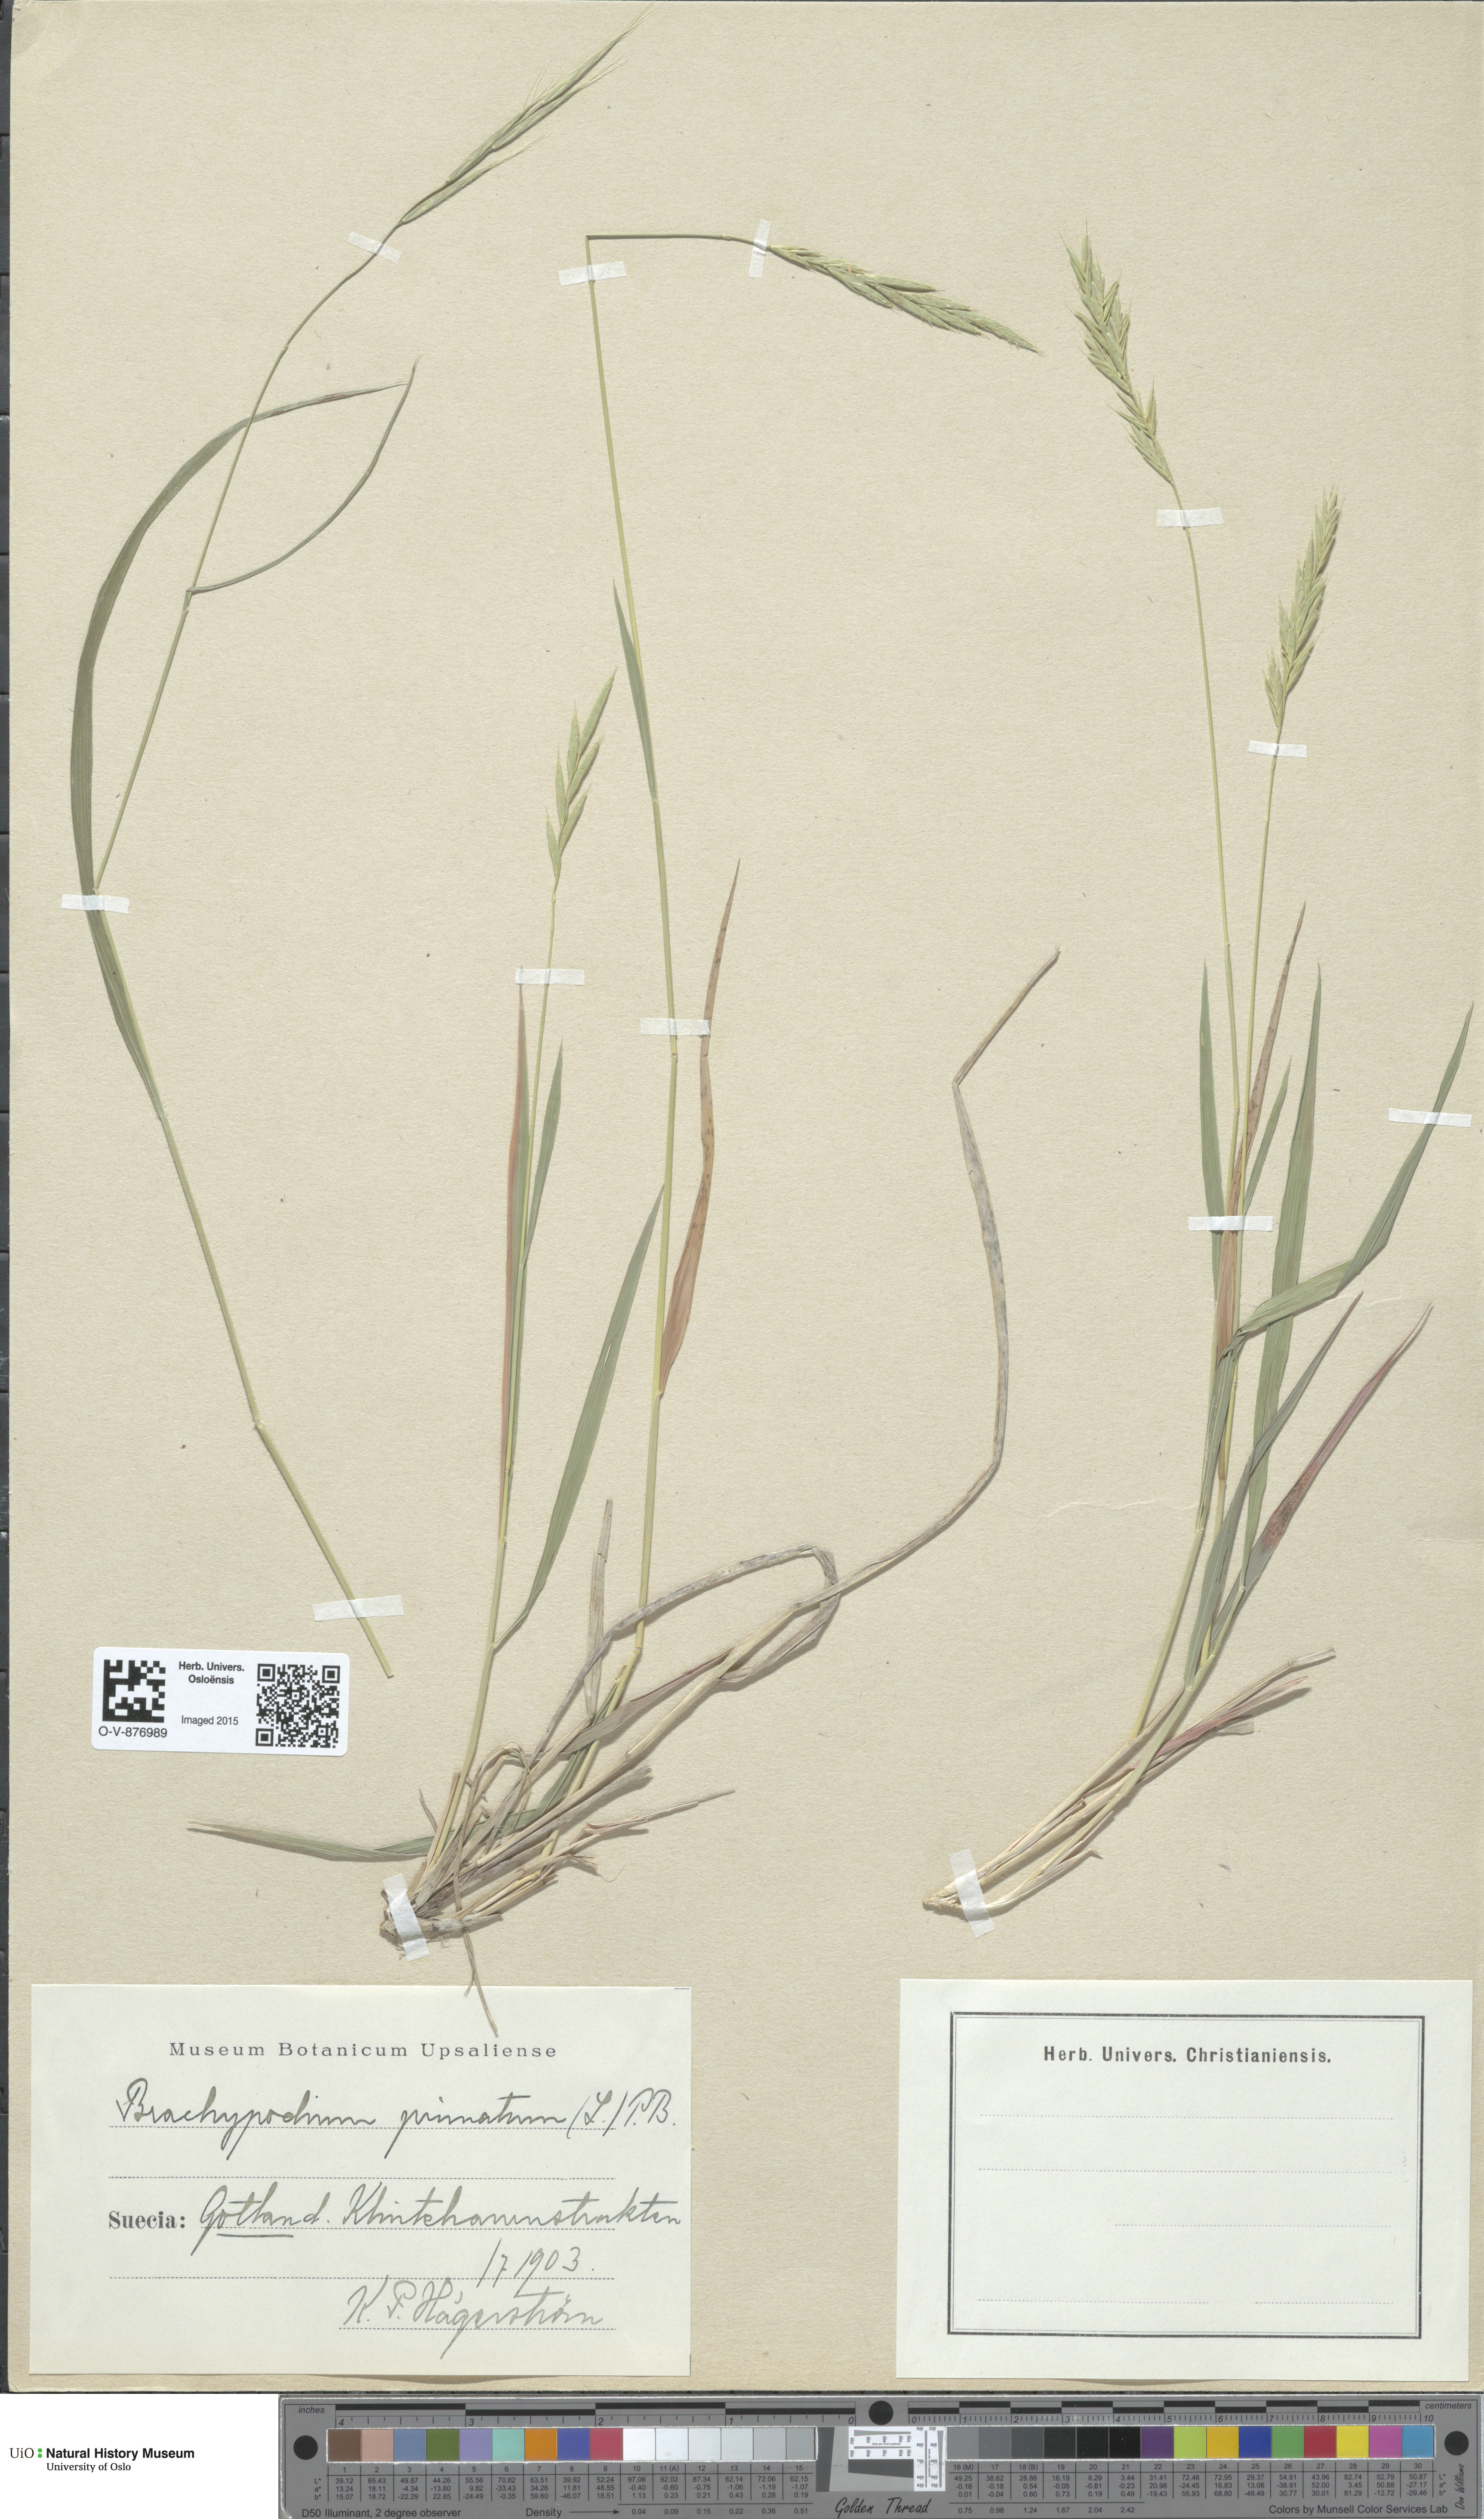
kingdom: Plantae
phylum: Tracheophyta
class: Liliopsida
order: Poales
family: Poaceae
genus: Brachypodium
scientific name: Brachypodium pinnatum
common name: Tor grass
